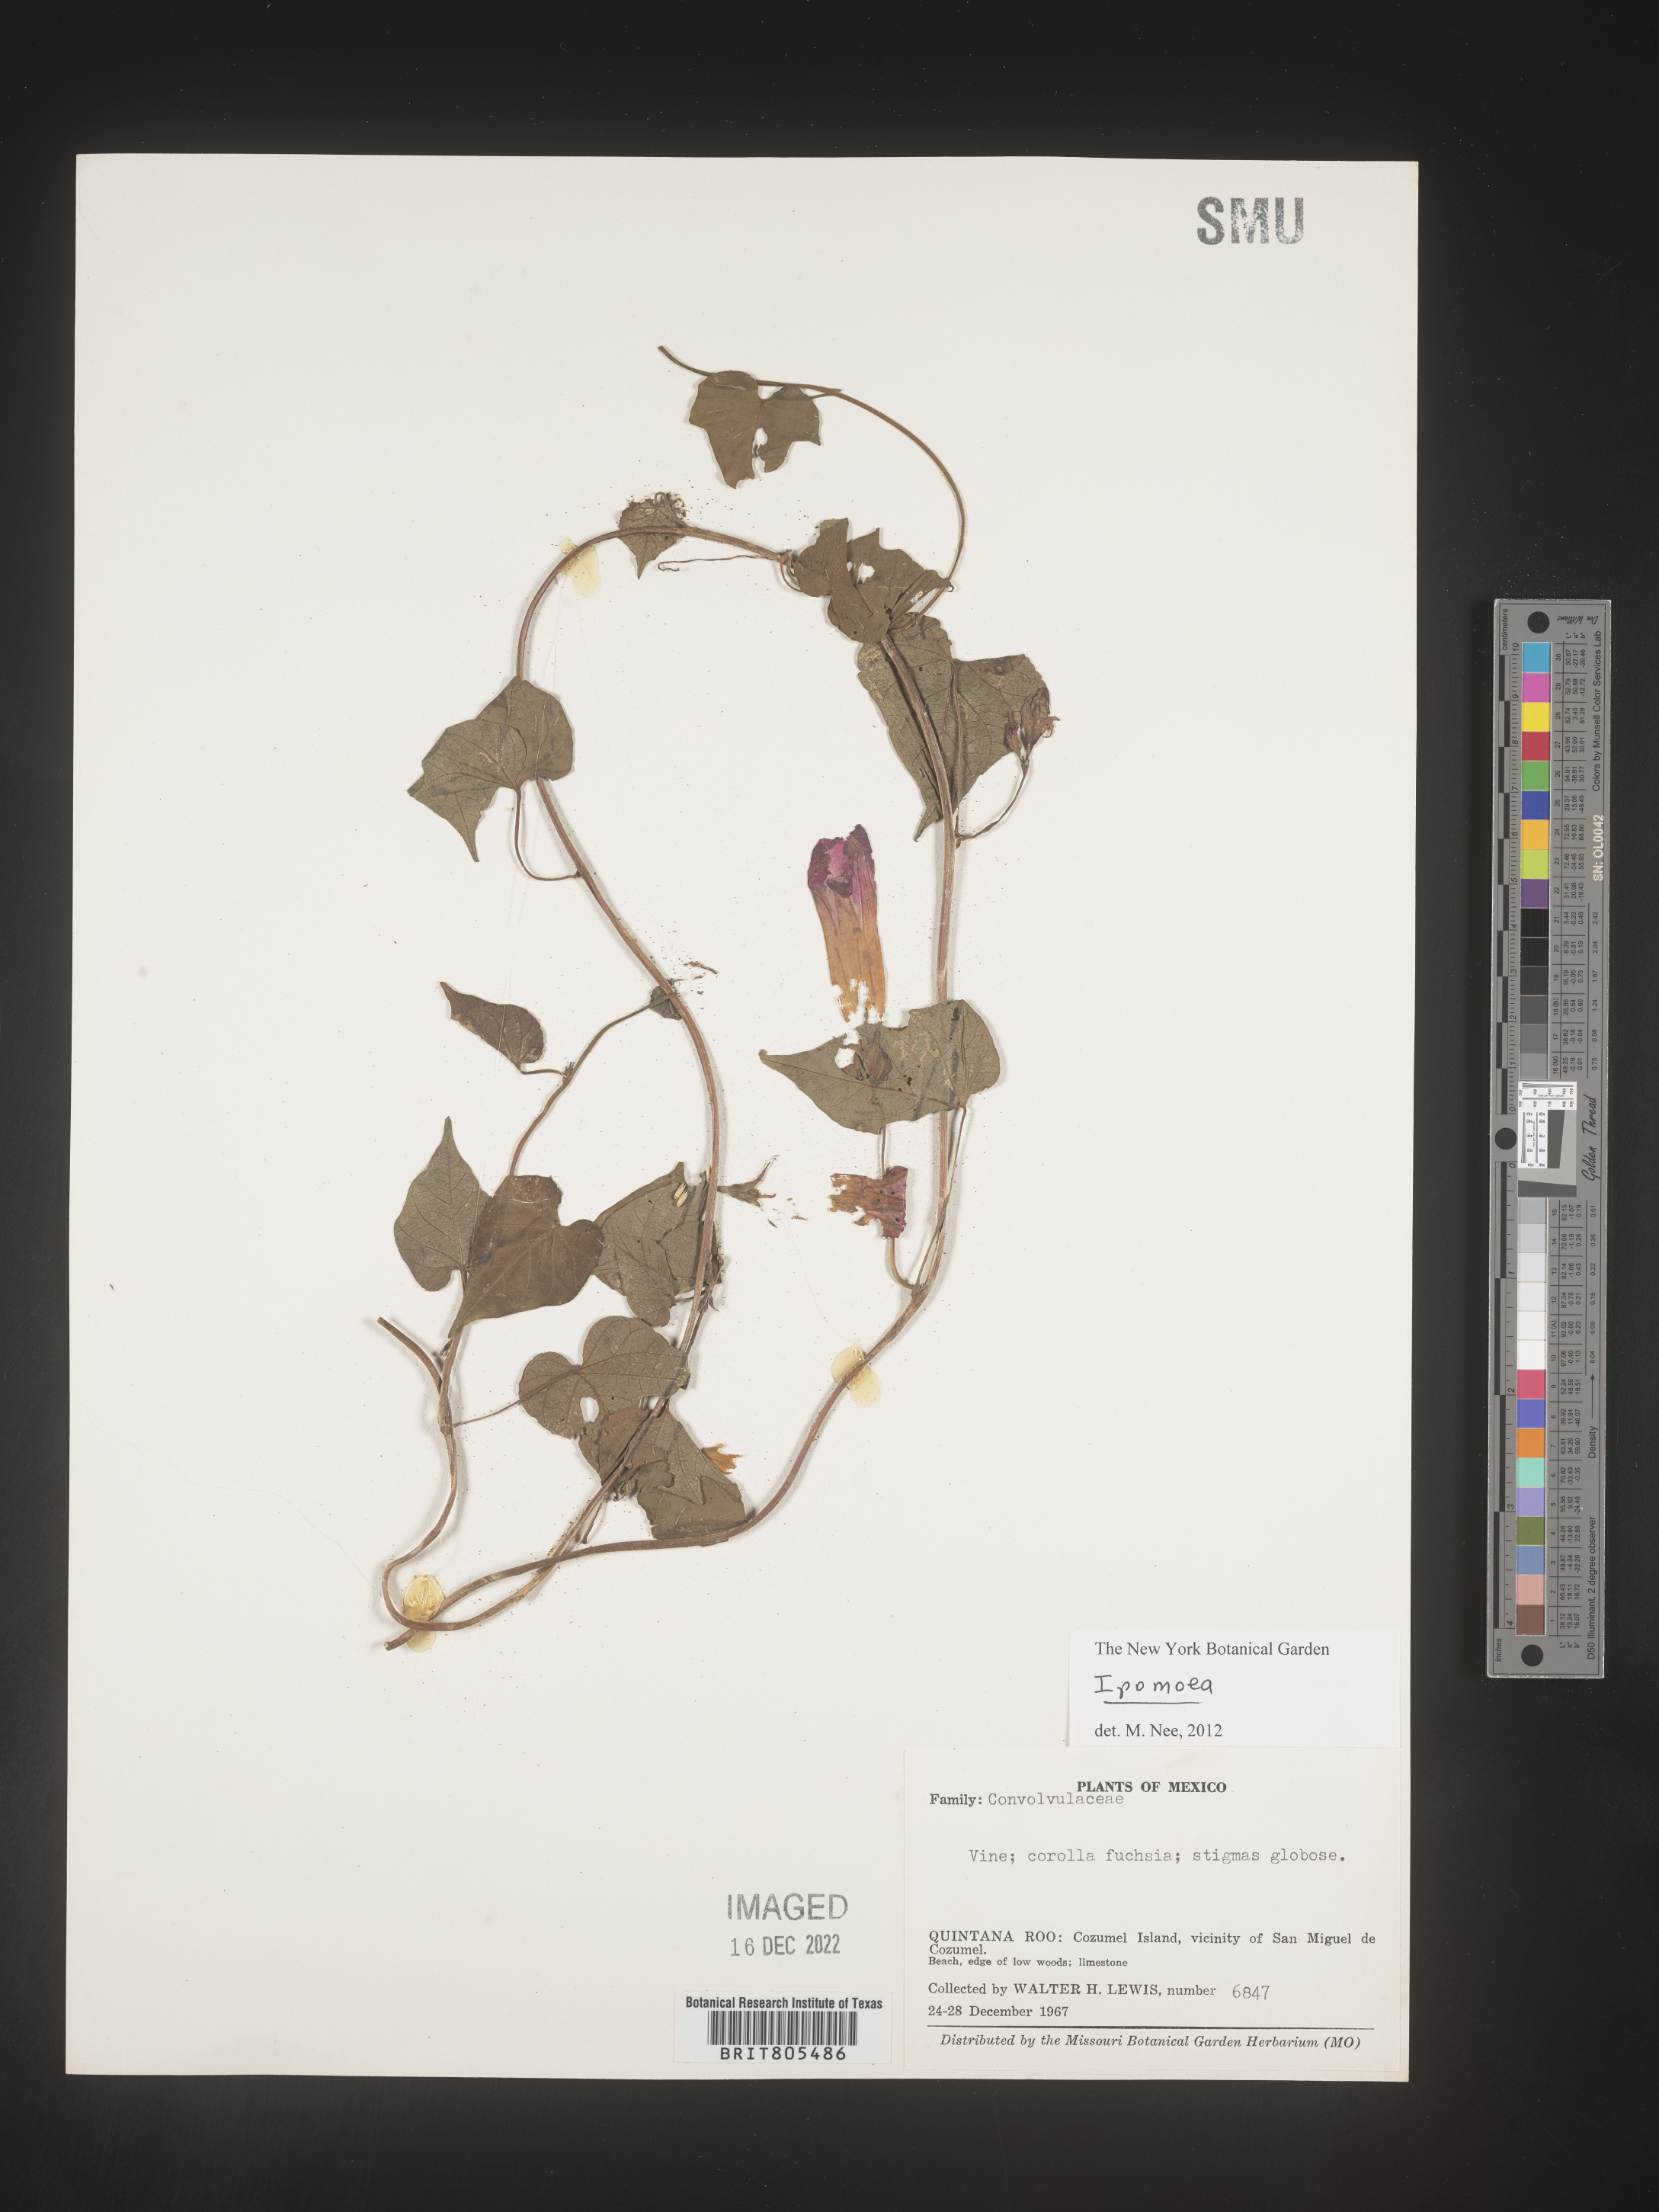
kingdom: Plantae
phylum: Tracheophyta
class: Magnoliopsida
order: Solanales
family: Convolvulaceae
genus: Ipomoea
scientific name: Ipomoea
